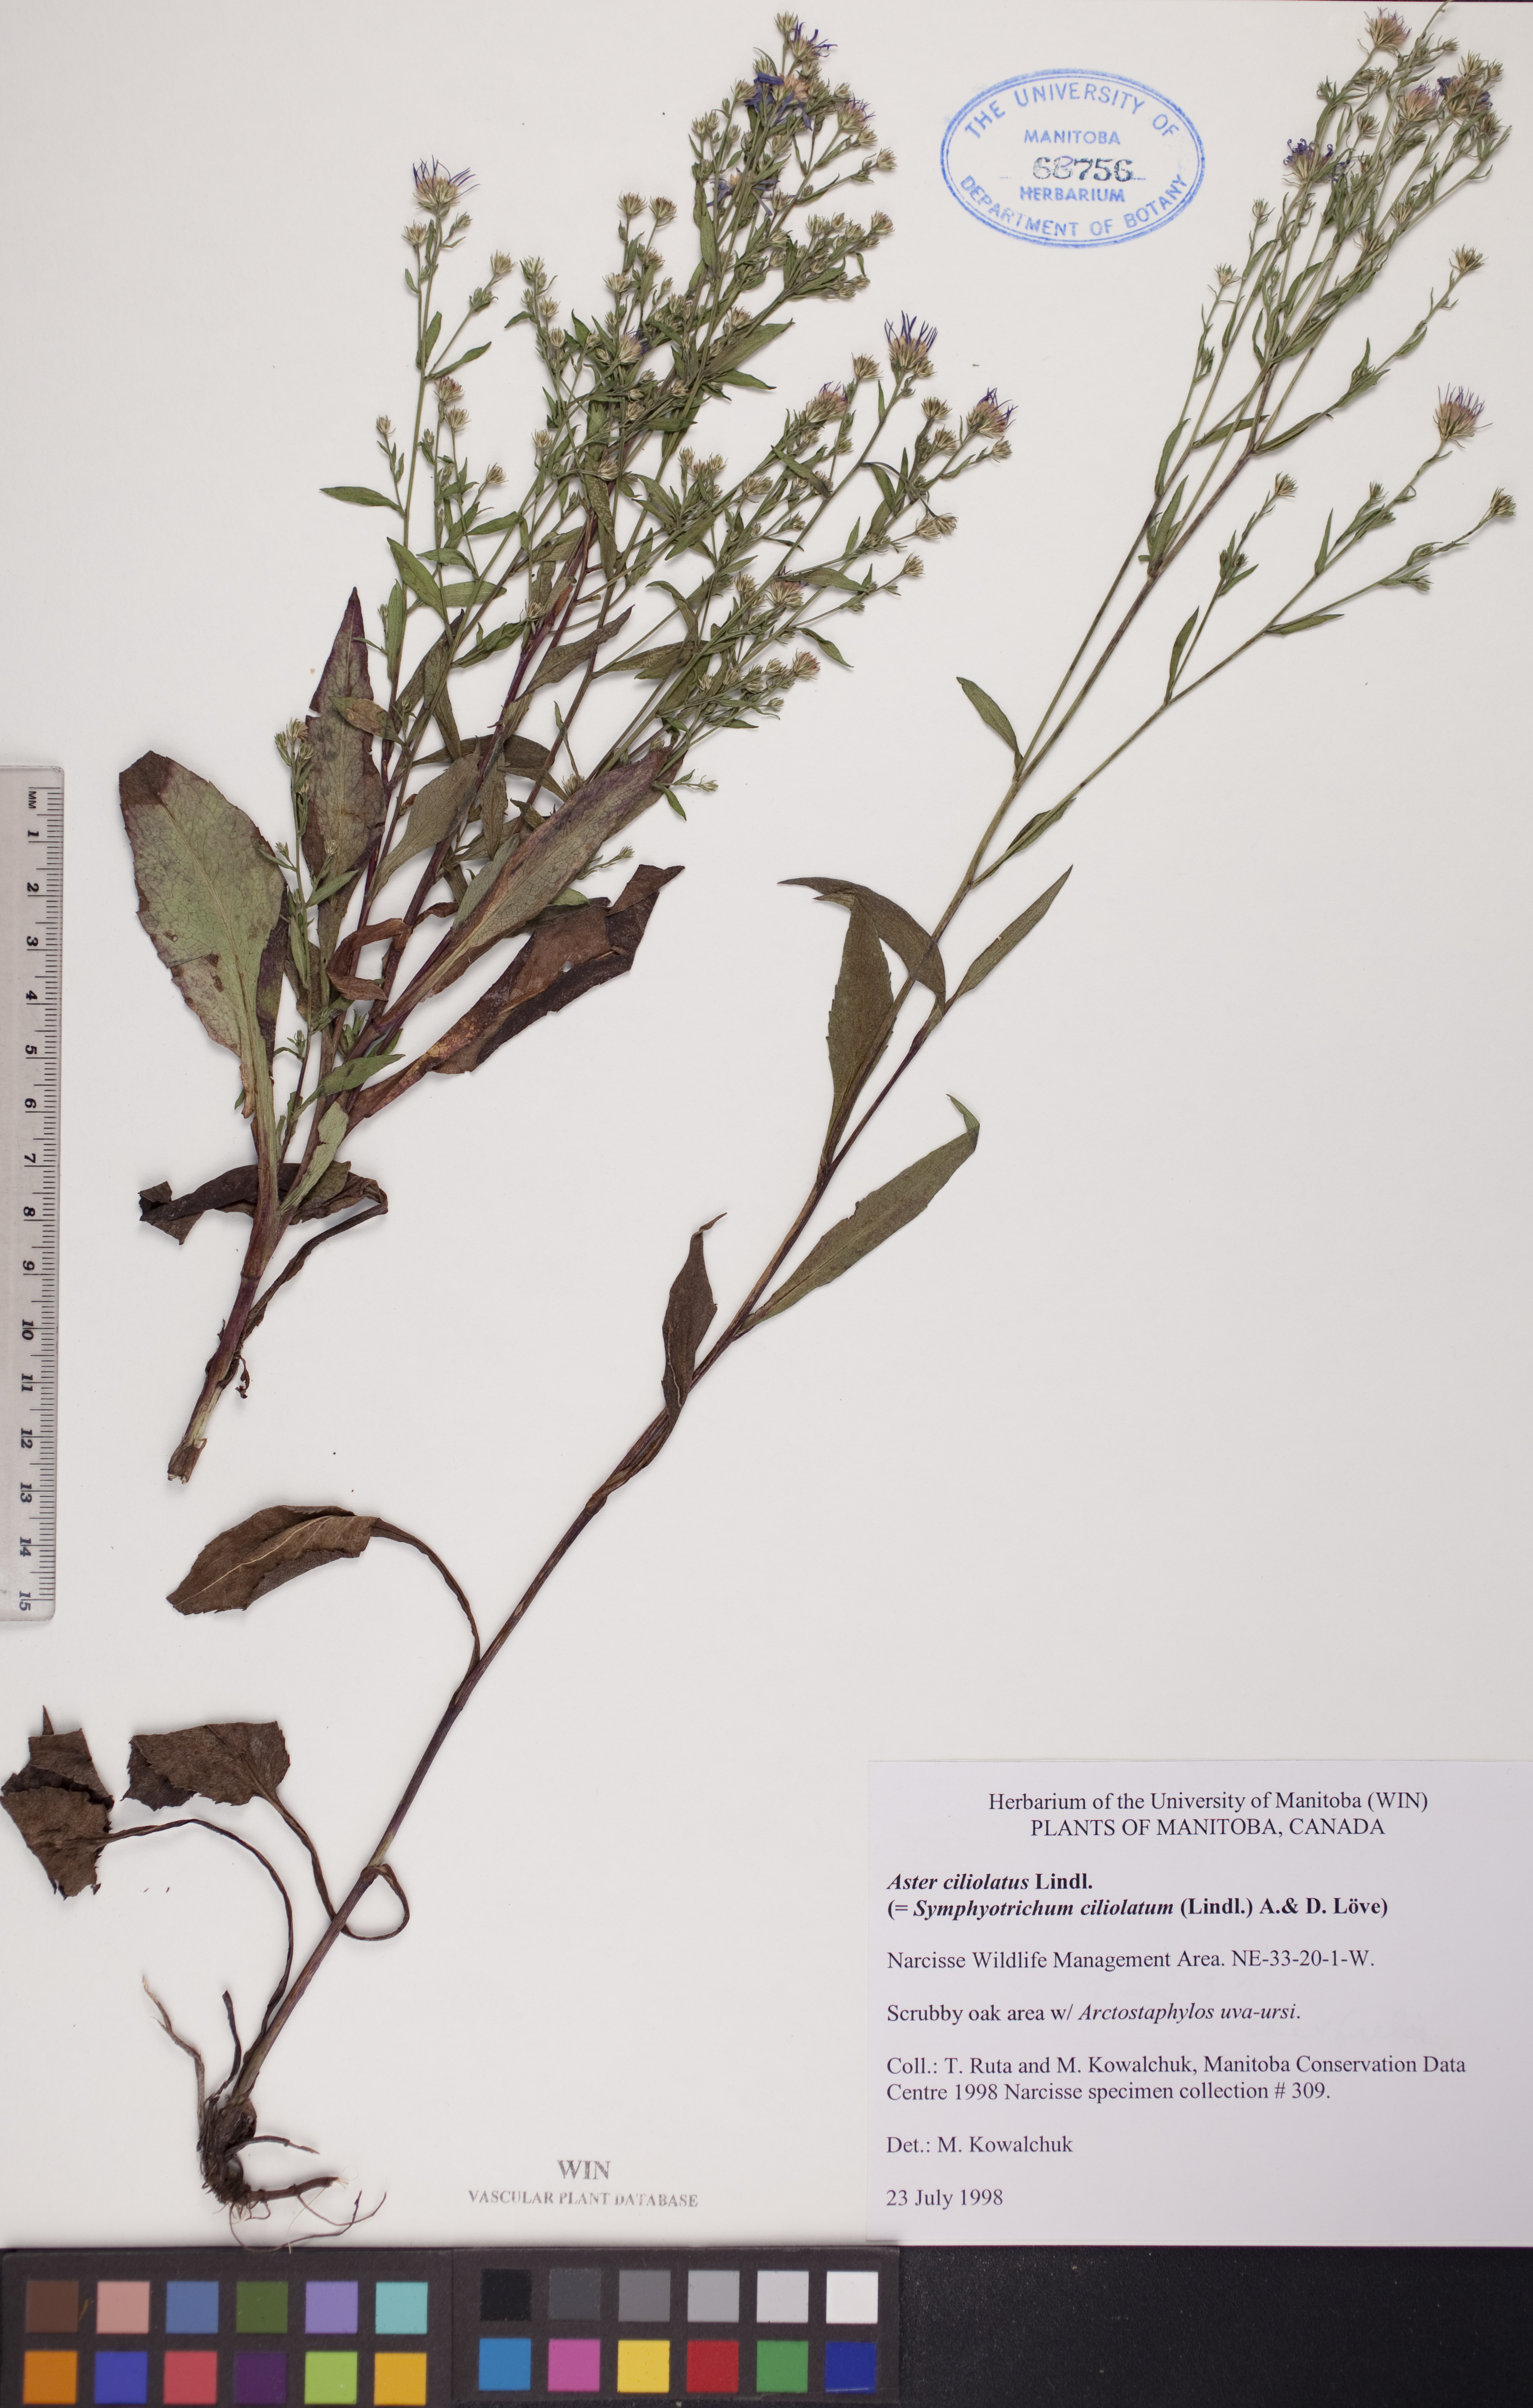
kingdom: Plantae
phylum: Tracheophyta
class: Magnoliopsida
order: Asterales
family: Asteraceae
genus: Symphyotrichum
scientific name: Symphyotrichum ciliolatum
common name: Fringed blue aster
